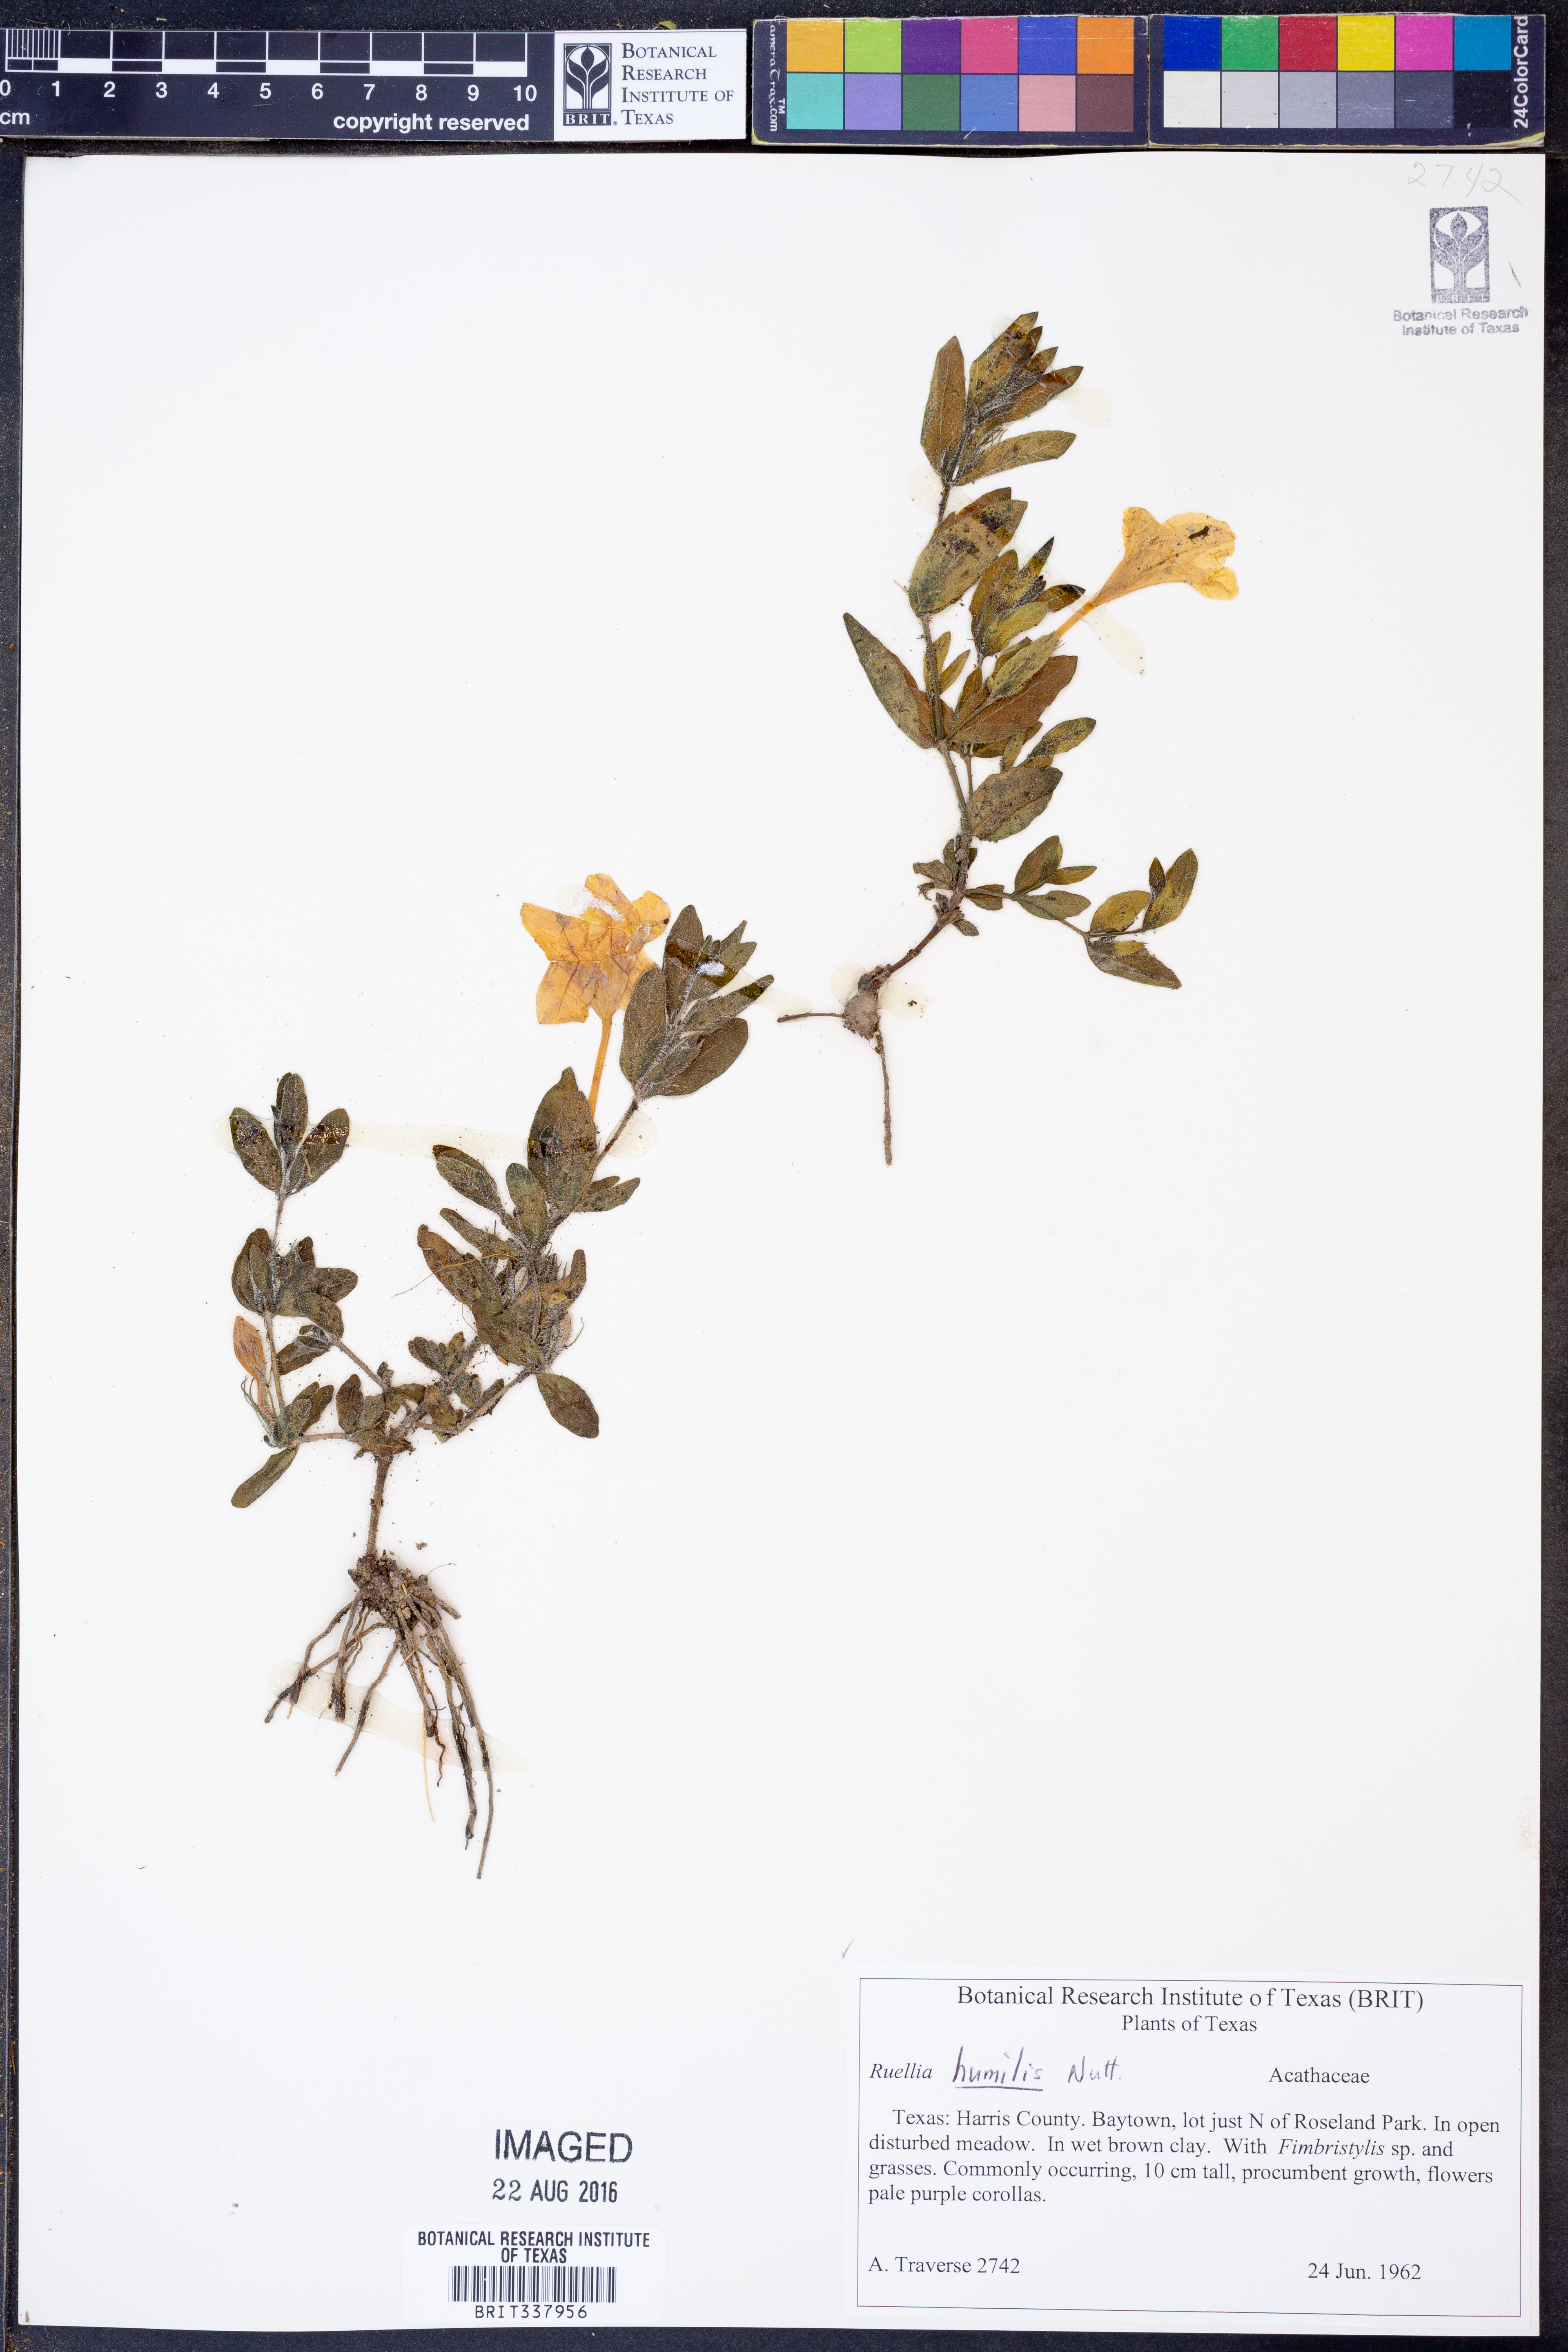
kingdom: Plantae
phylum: Tracheophyta
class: Magnoliopsida
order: Lamiales
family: Acanthaceae
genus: Ruellia
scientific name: Ruellia humilis
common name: Fringe-leaf ruellia
